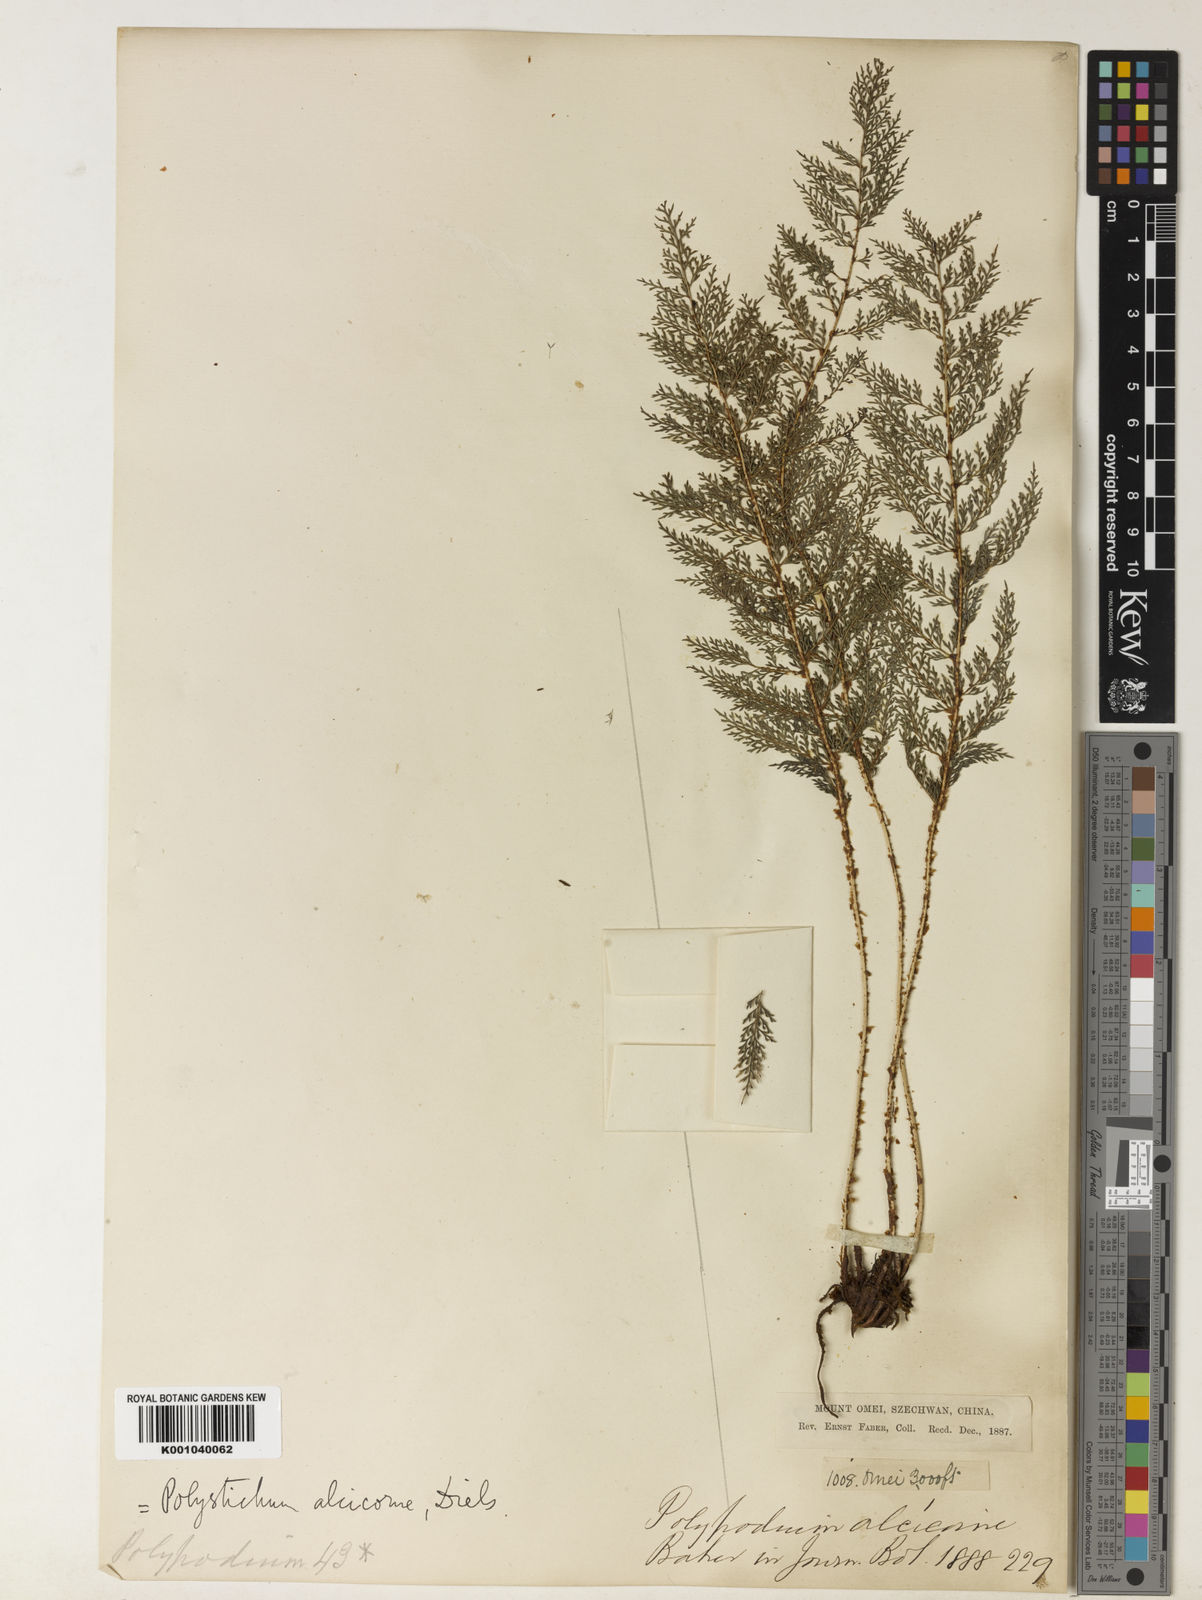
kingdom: Plantae
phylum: Tracheophyta
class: Polypodiopsida
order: Polypodiales
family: Dryopteridaceae
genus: Polystichum
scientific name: Polystichum alcicorne
